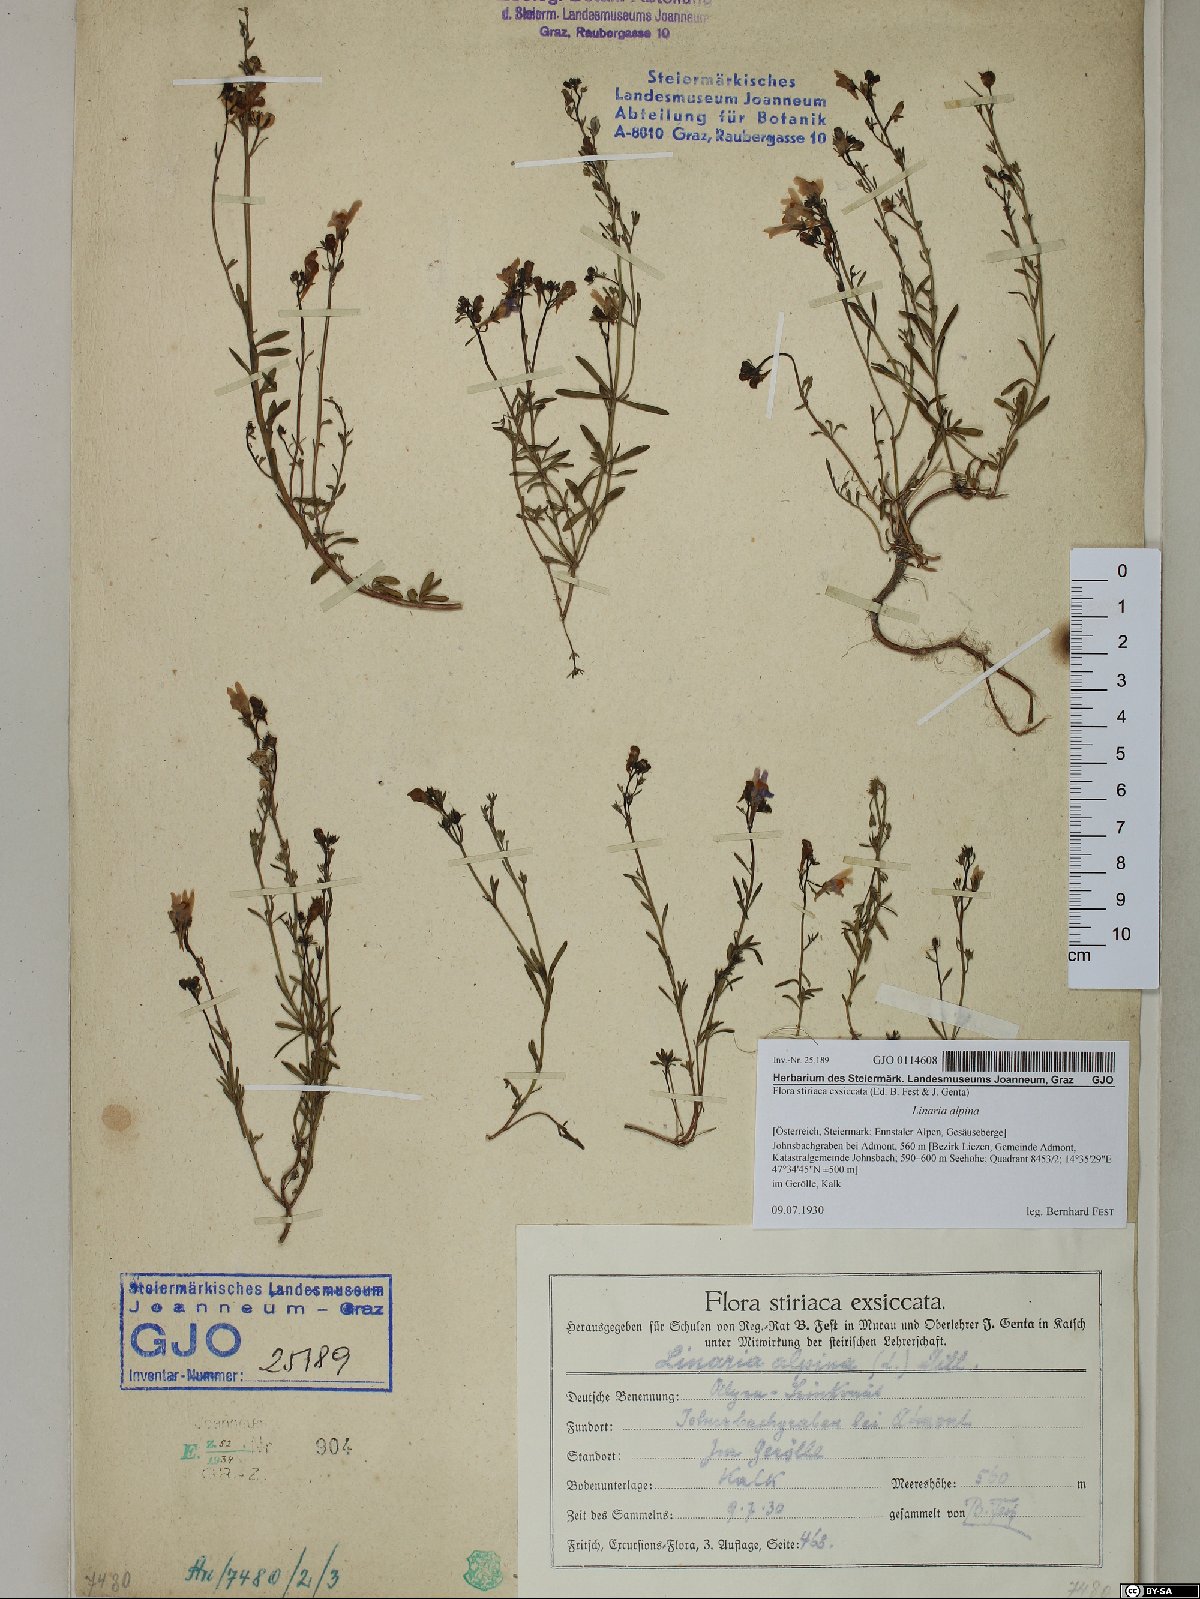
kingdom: Plantae
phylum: Tracheophyta
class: Magnoliopsida
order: Lamiales
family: Plantaginaceae
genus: Linaria
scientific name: Linaria alpina
